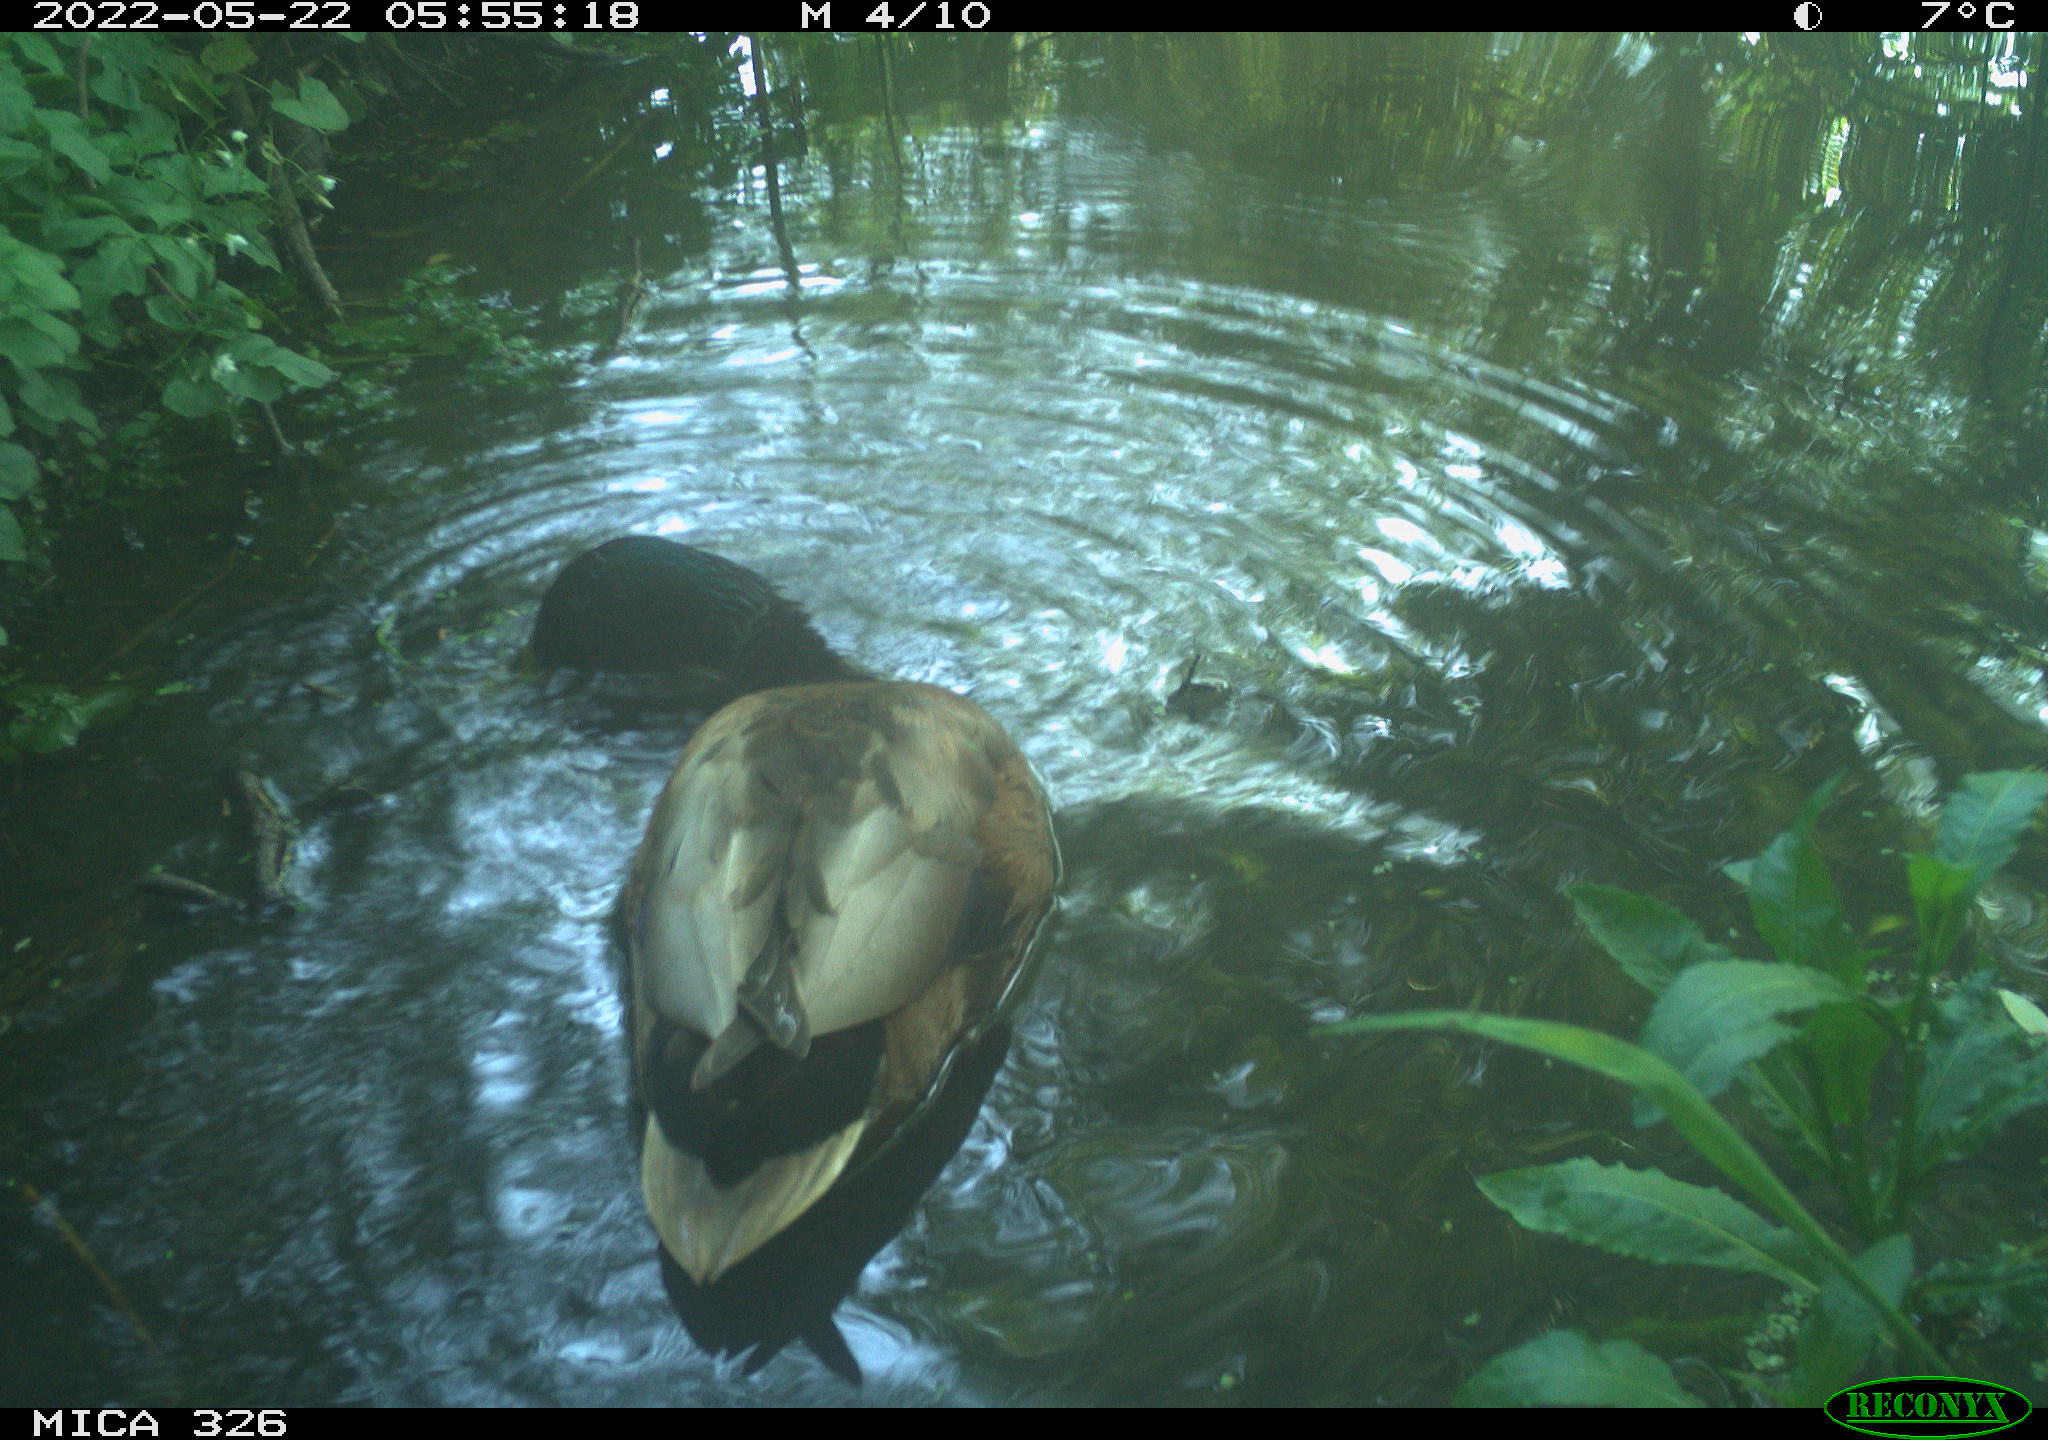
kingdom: Animalia
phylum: Chordata
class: Aves
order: Anseriformes
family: Anatidae
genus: Anas
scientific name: Anas platyrhynchos
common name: Mallard
